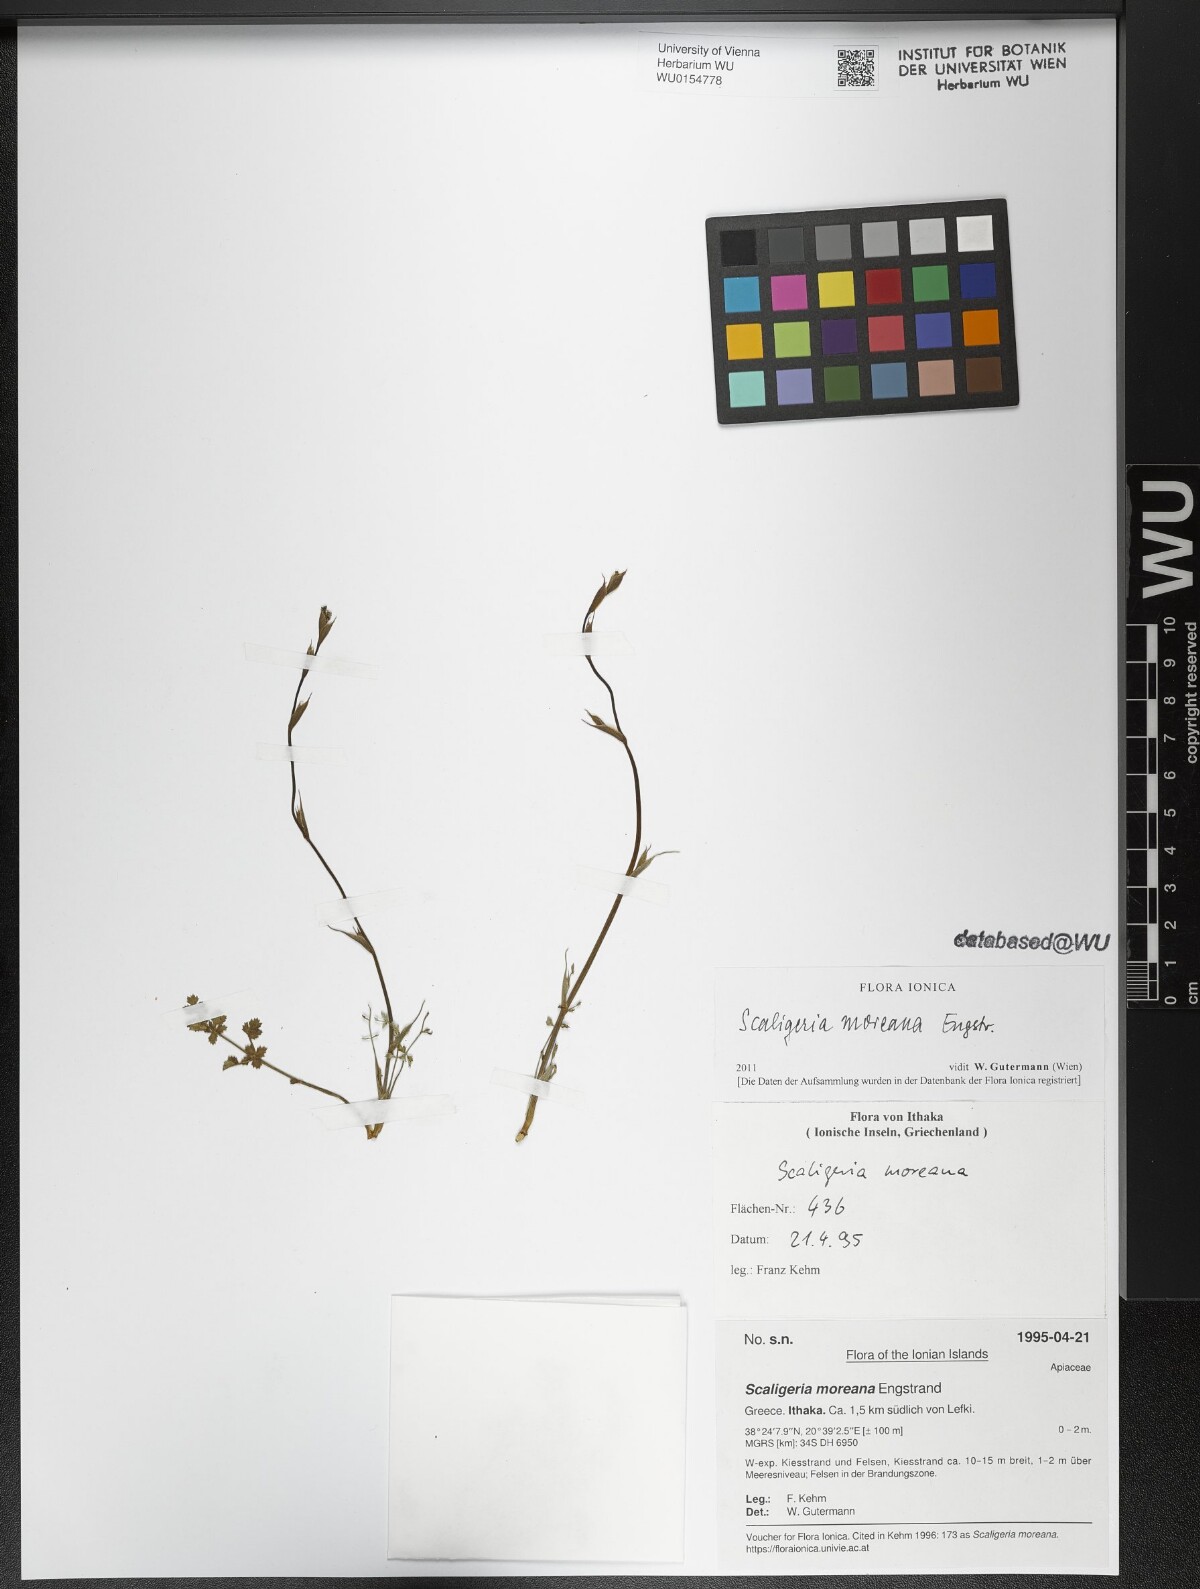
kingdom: Plantae
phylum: Tracheophyta
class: Magnoliopsida
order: Apiales
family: Apiaceae
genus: Scaligeria
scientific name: Scaligeria moreana
